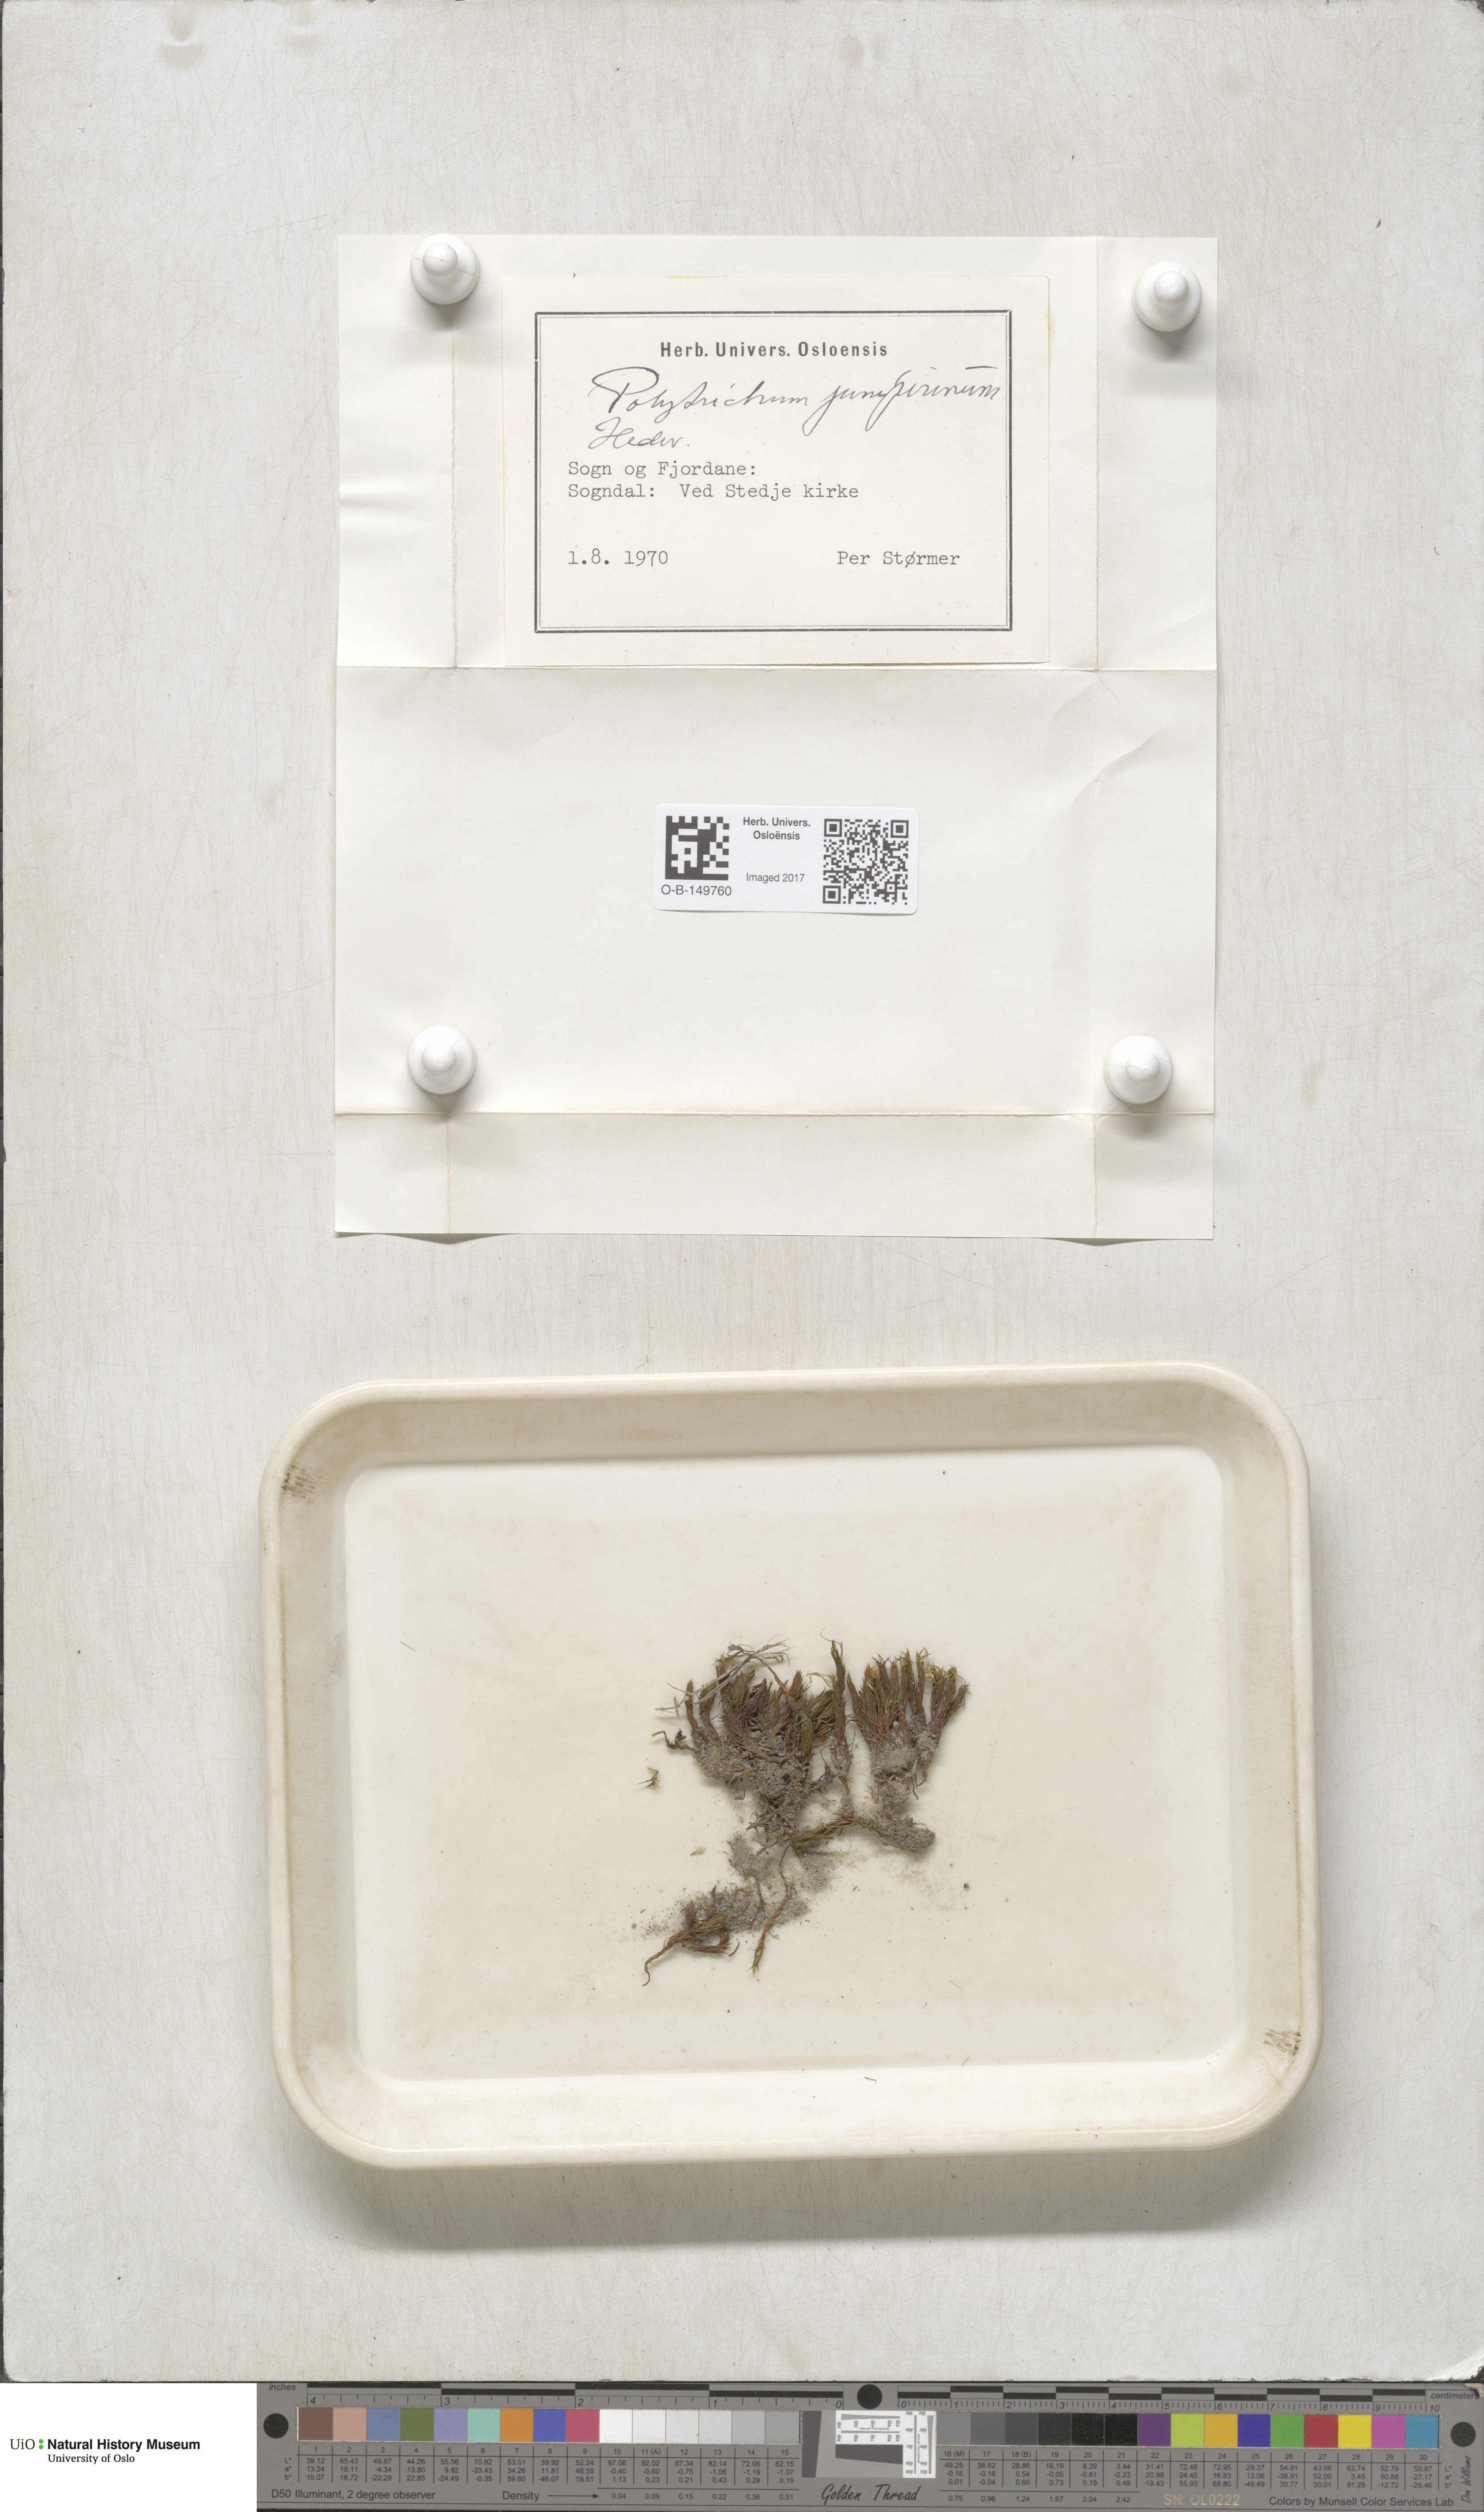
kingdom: Plantae
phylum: Bryophyta
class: Polytrichopsida
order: Polytrichales
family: Polytrichaceae
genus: Polytrichum
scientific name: Polytrichum juniperinum
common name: Juniper haircap moss
